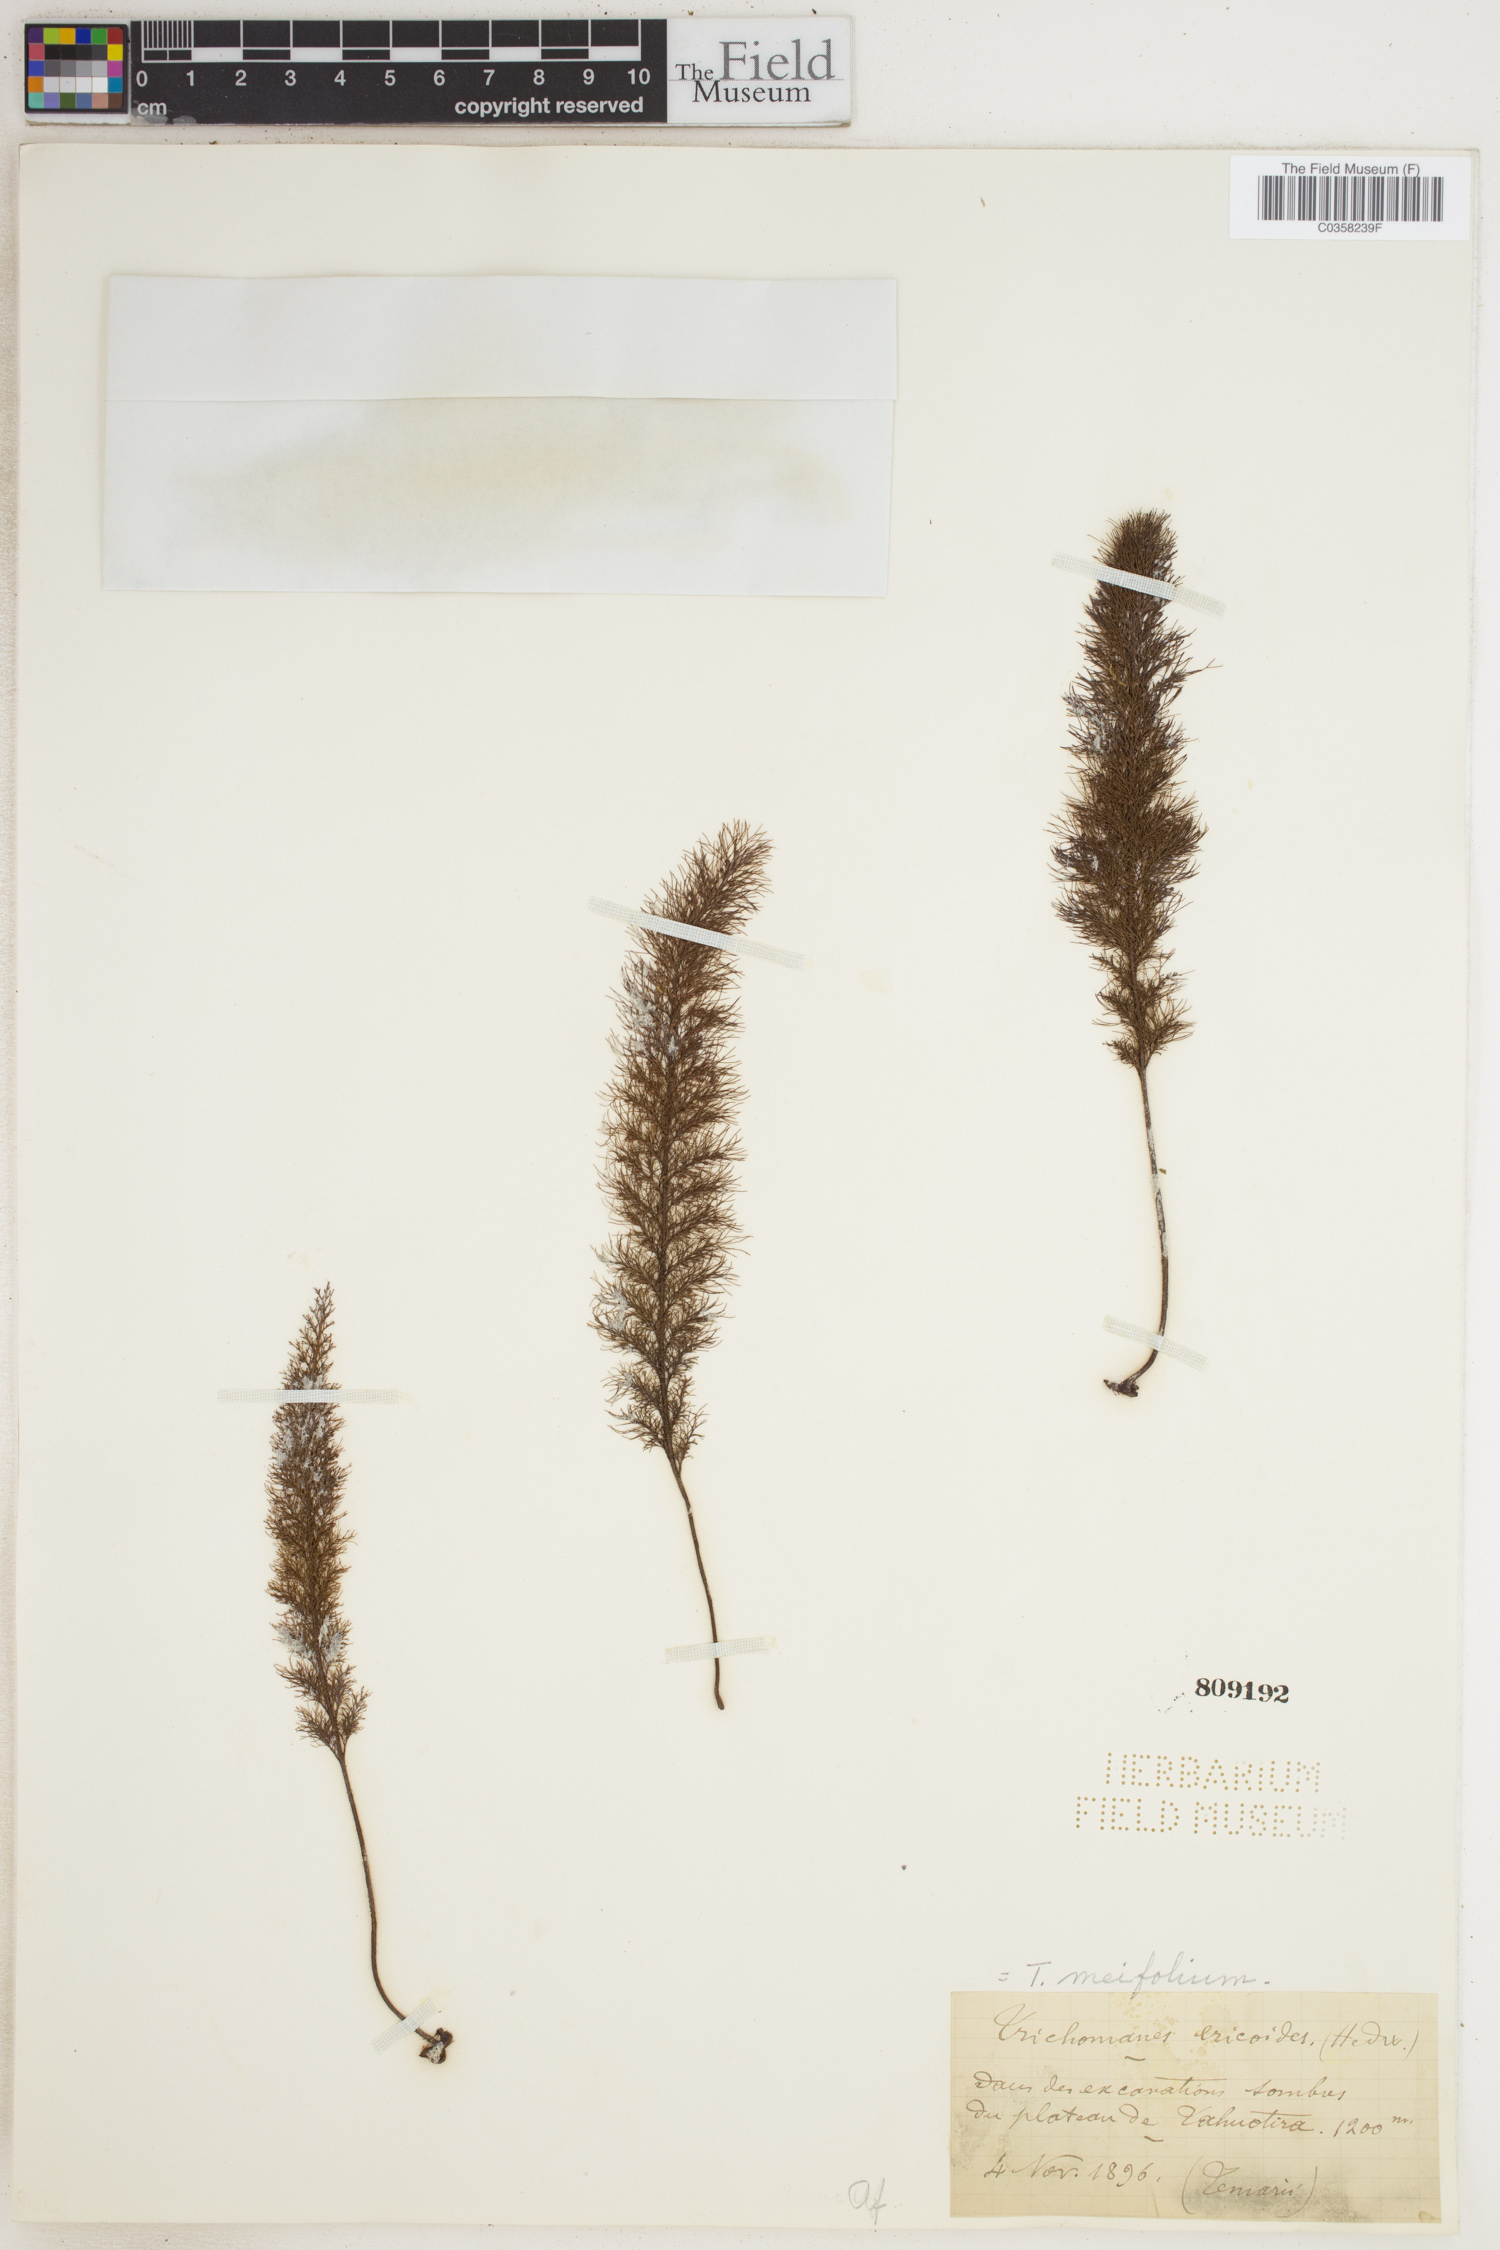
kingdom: Plantae
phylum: Tracheophyta
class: Polypodiopsida
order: Hymenophyllales
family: Hymenophyllaceae
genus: Abrodictyum
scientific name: Abrodictyum parviflorum
